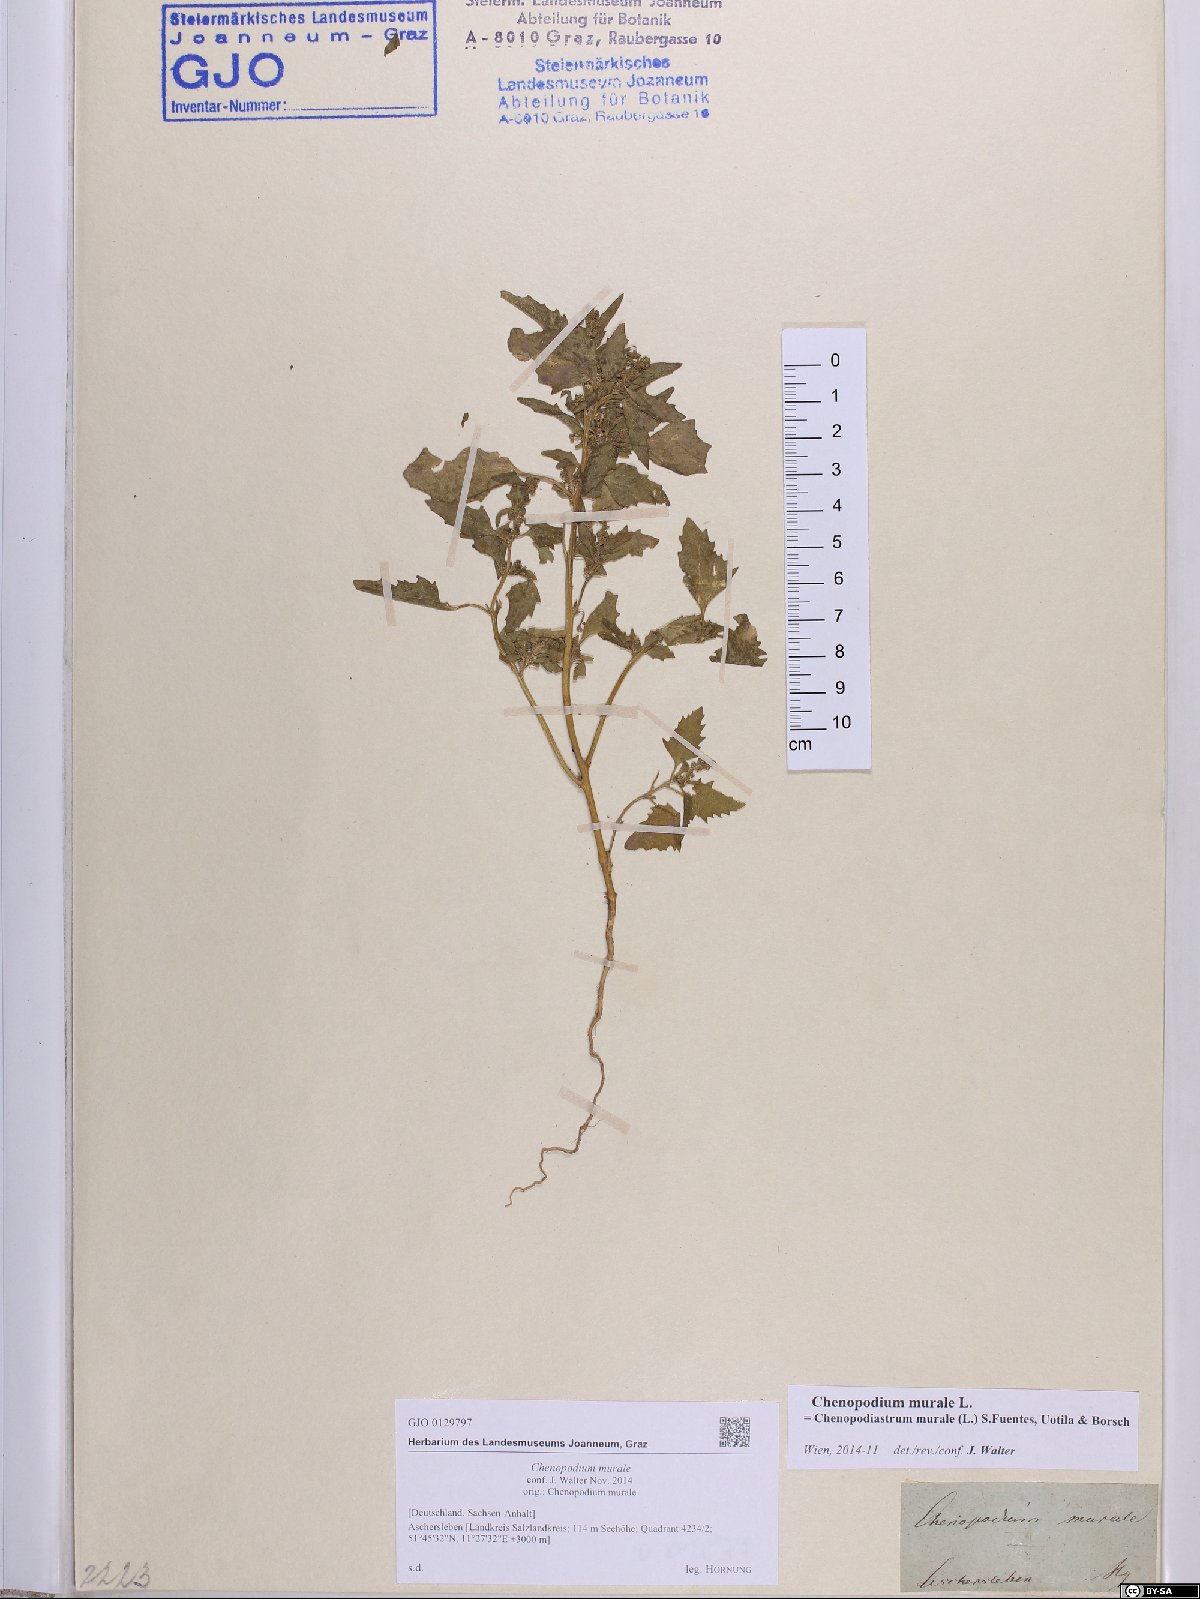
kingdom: Plantae
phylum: Tracheophyta
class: Magnoliopsida
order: Caryophyllales
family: Amaranthaceae
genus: Chenopodiastrum
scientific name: Chenopodiastrum murale
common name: Sowbane
